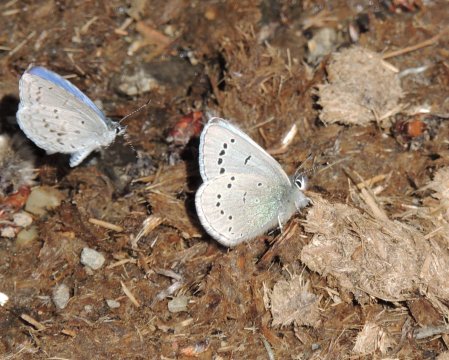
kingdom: Animalia
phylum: Arthropoda
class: Insecta
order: Lepidoptera
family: Lycaenidae
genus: Glaucopsyche
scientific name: Glaucopsyche lygdamus
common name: Silvery Blue
